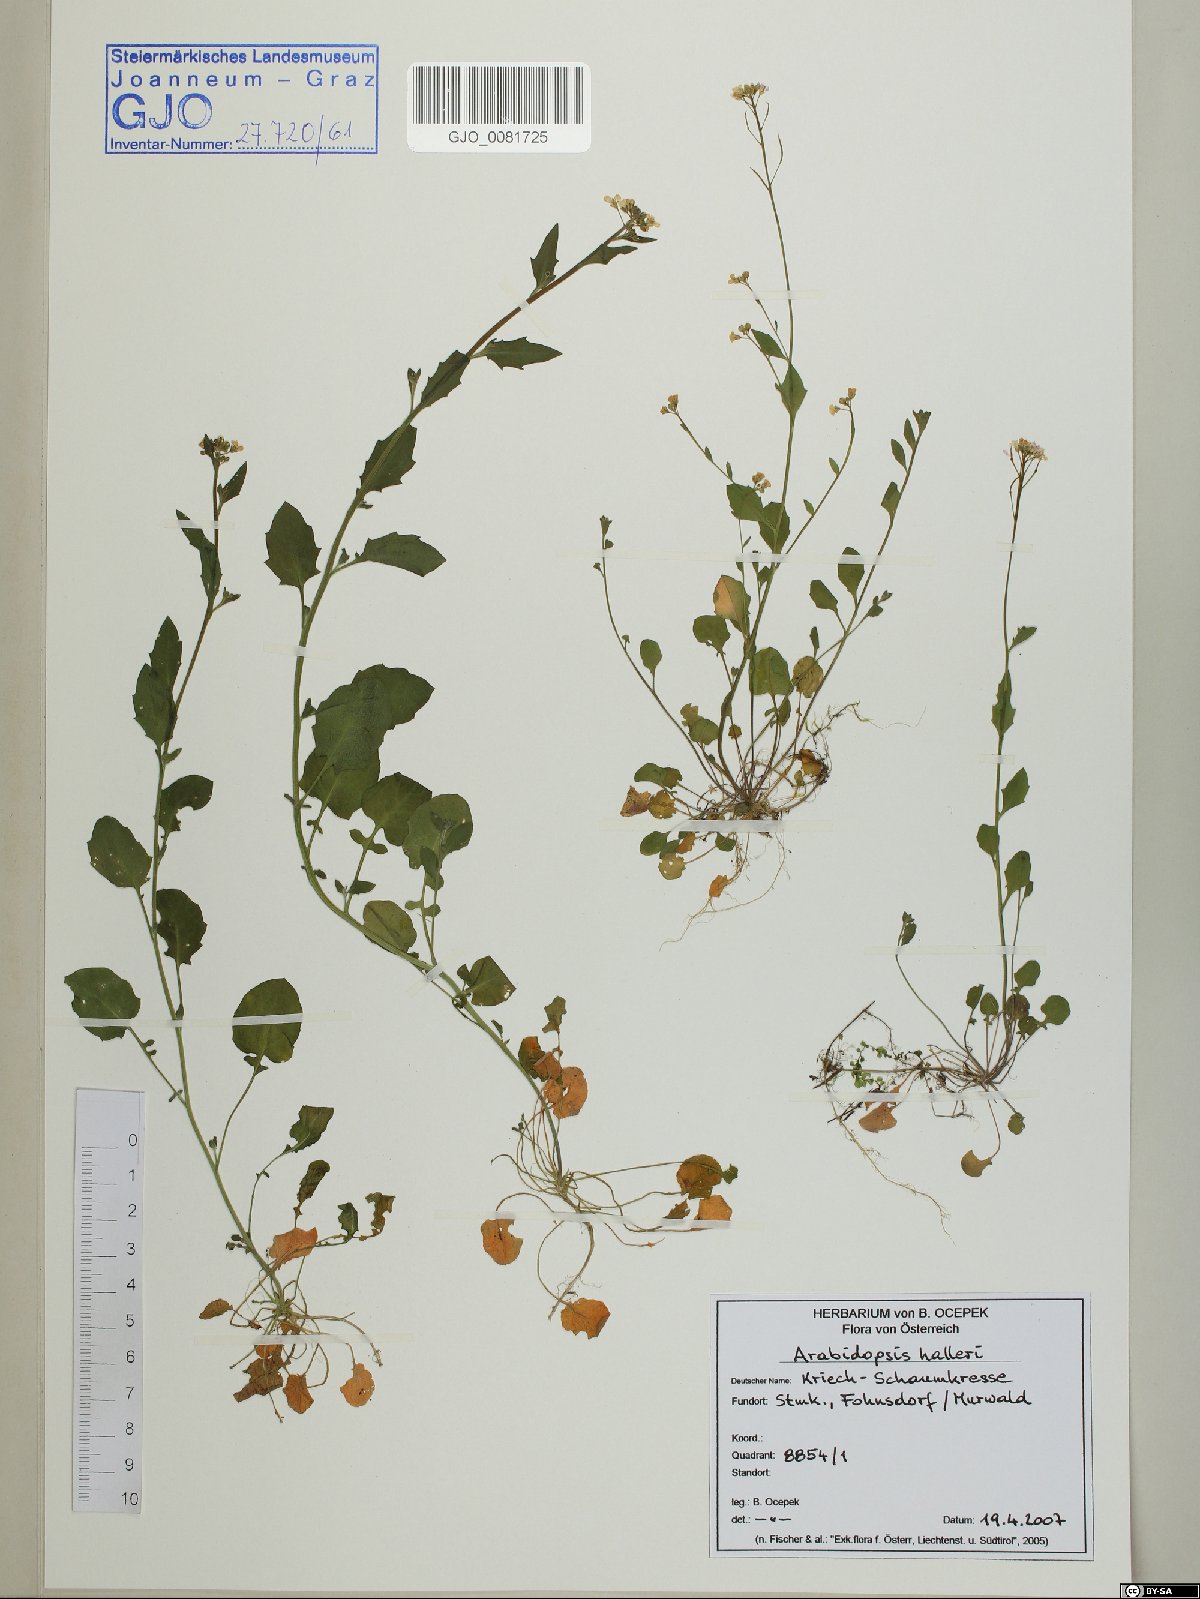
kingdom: Plantae
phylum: Tracheophyta
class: Magnoliopsida
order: Brassicales
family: Brassicaceae
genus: Arabidopsis
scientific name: Arabidopsis halleri
